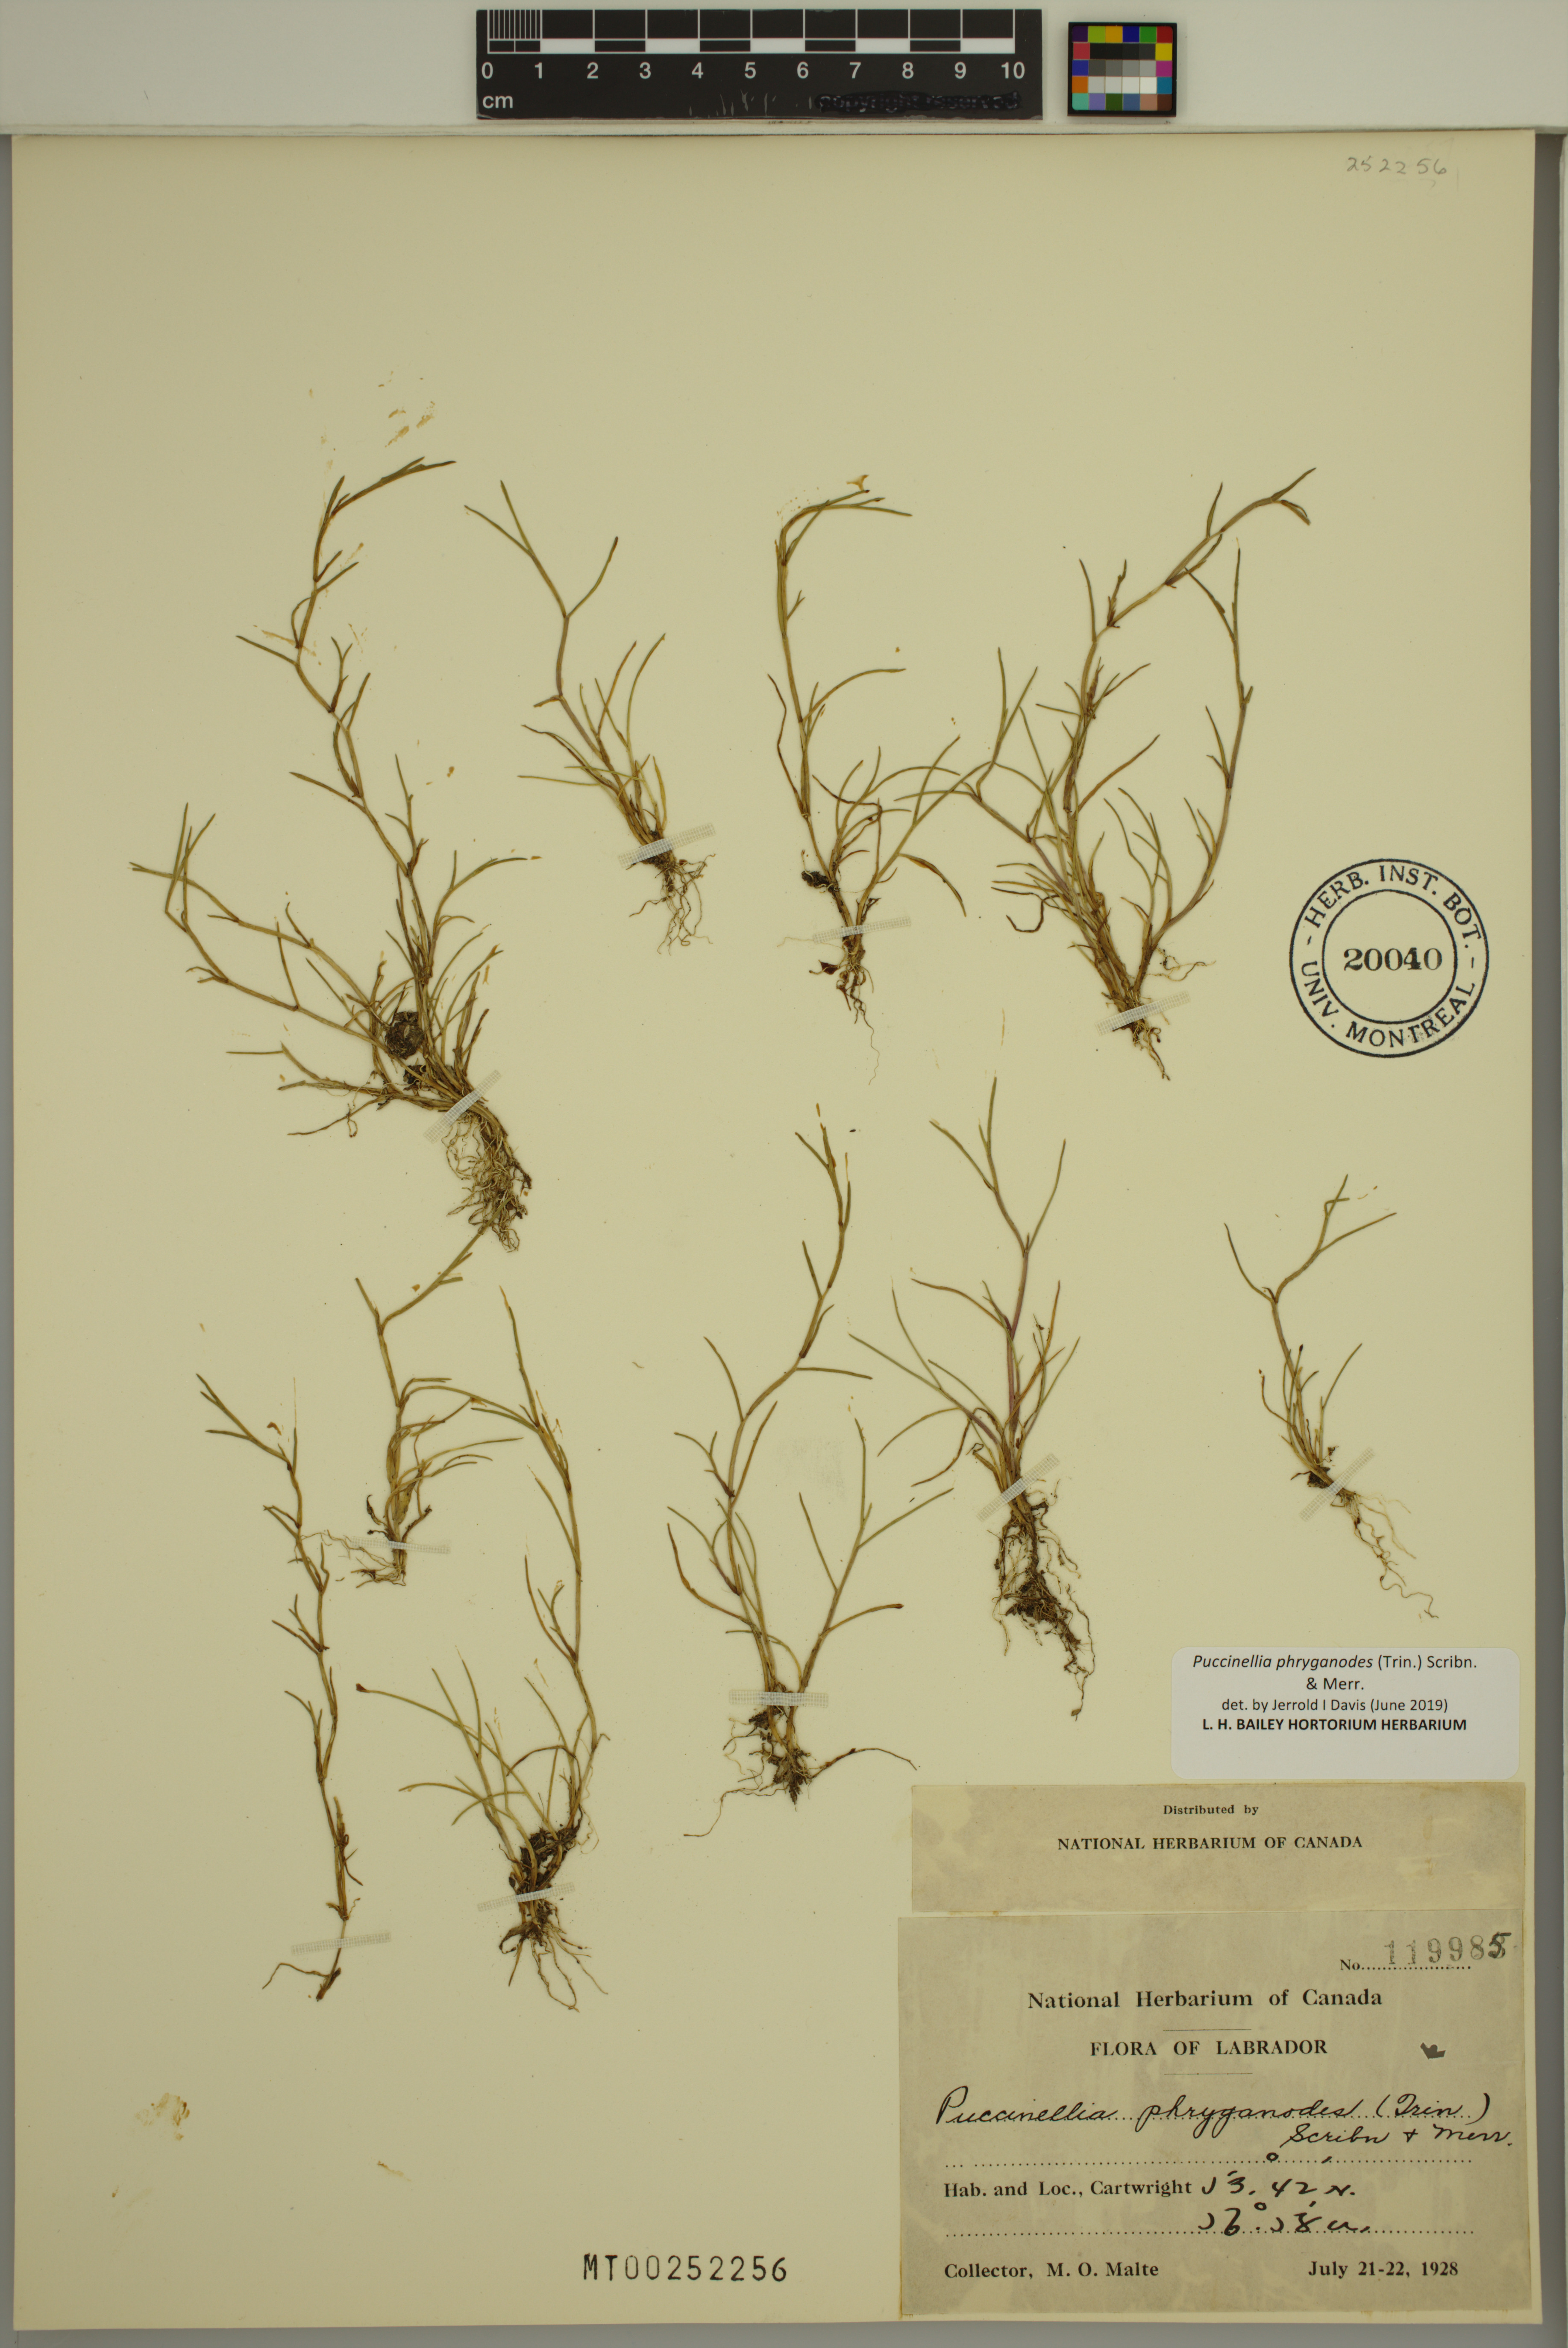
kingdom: Plantae
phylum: Tracheophyta
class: Liliopsida
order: Poales
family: Poaceae
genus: Puccinellia
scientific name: Puccinellia phryganodes
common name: Creeping alkaligrass
